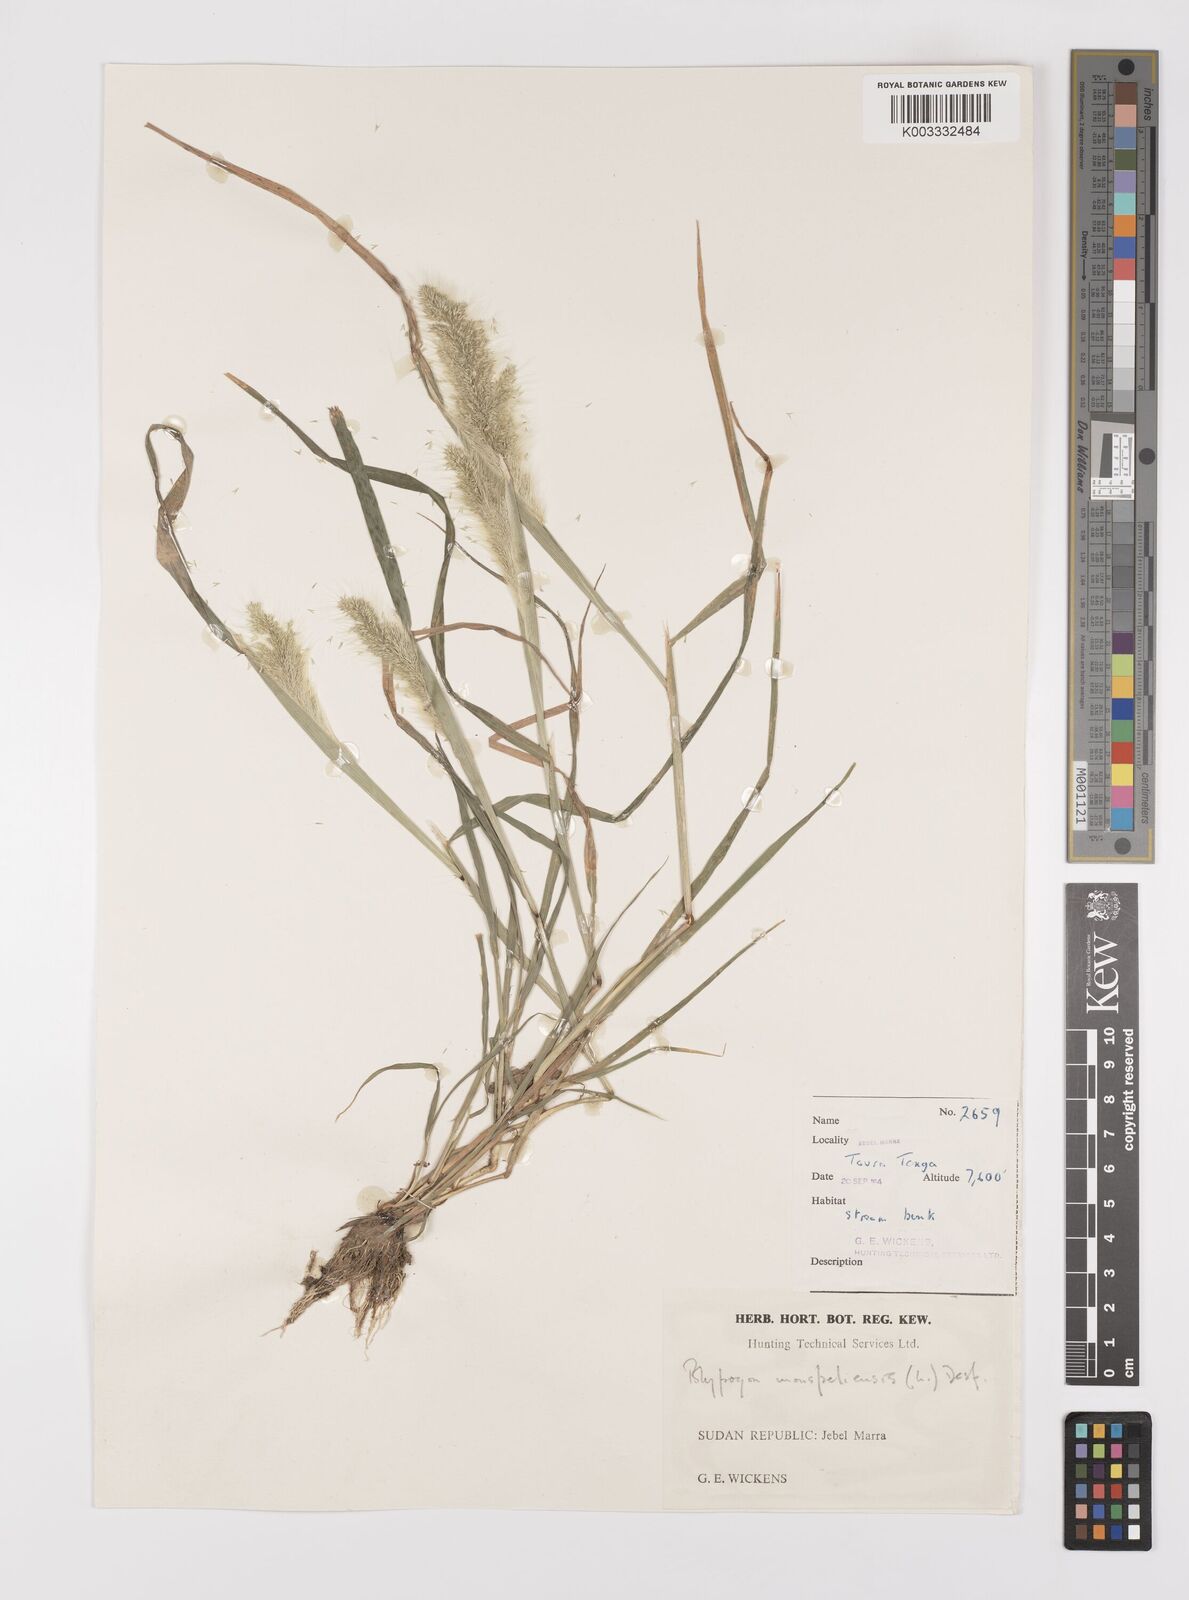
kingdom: Plantae
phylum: Tracheophyta
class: Liliopsida
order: Poales
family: Poaceae
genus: Polypogon
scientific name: Polypogon monspeliensis
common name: Annual rabbitsfoot grass
